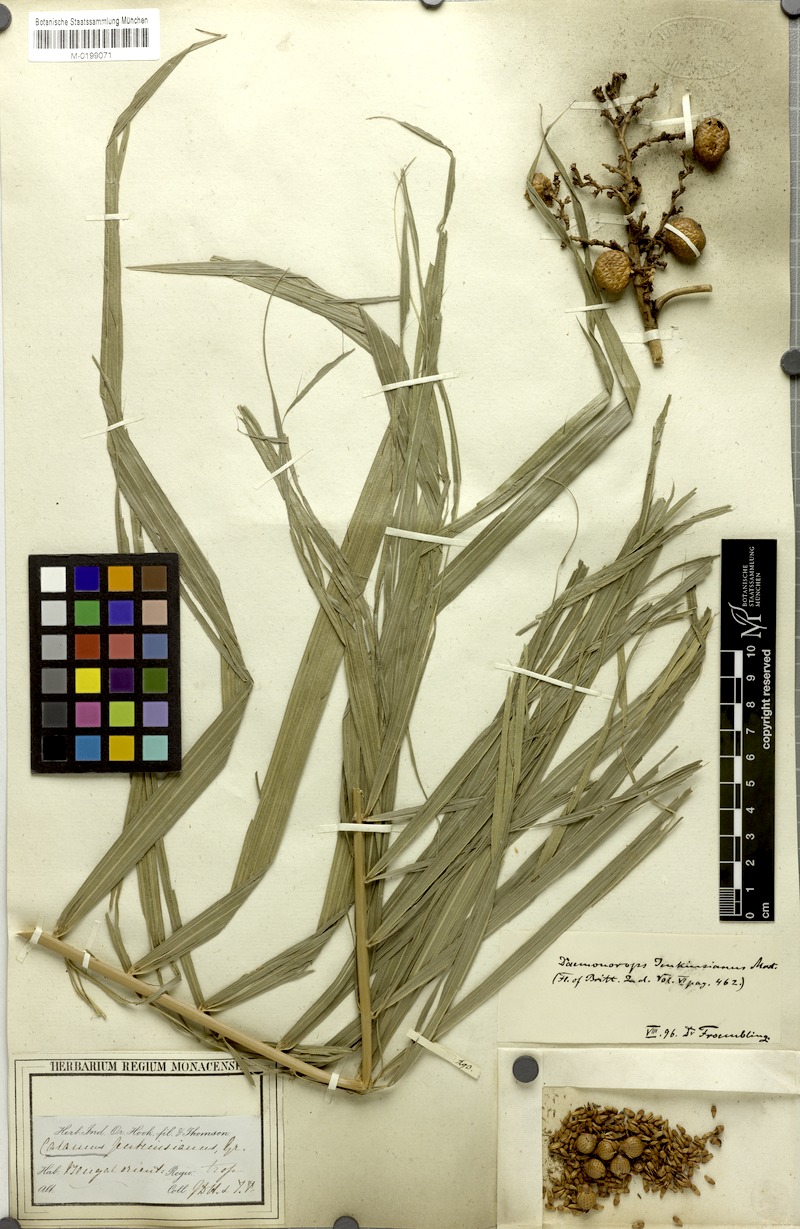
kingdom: Plantae
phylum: Tracheophyta
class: Liliopsida
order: Arecales
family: Arecaceae
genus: Calamus
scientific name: Calamus melanochaetes
